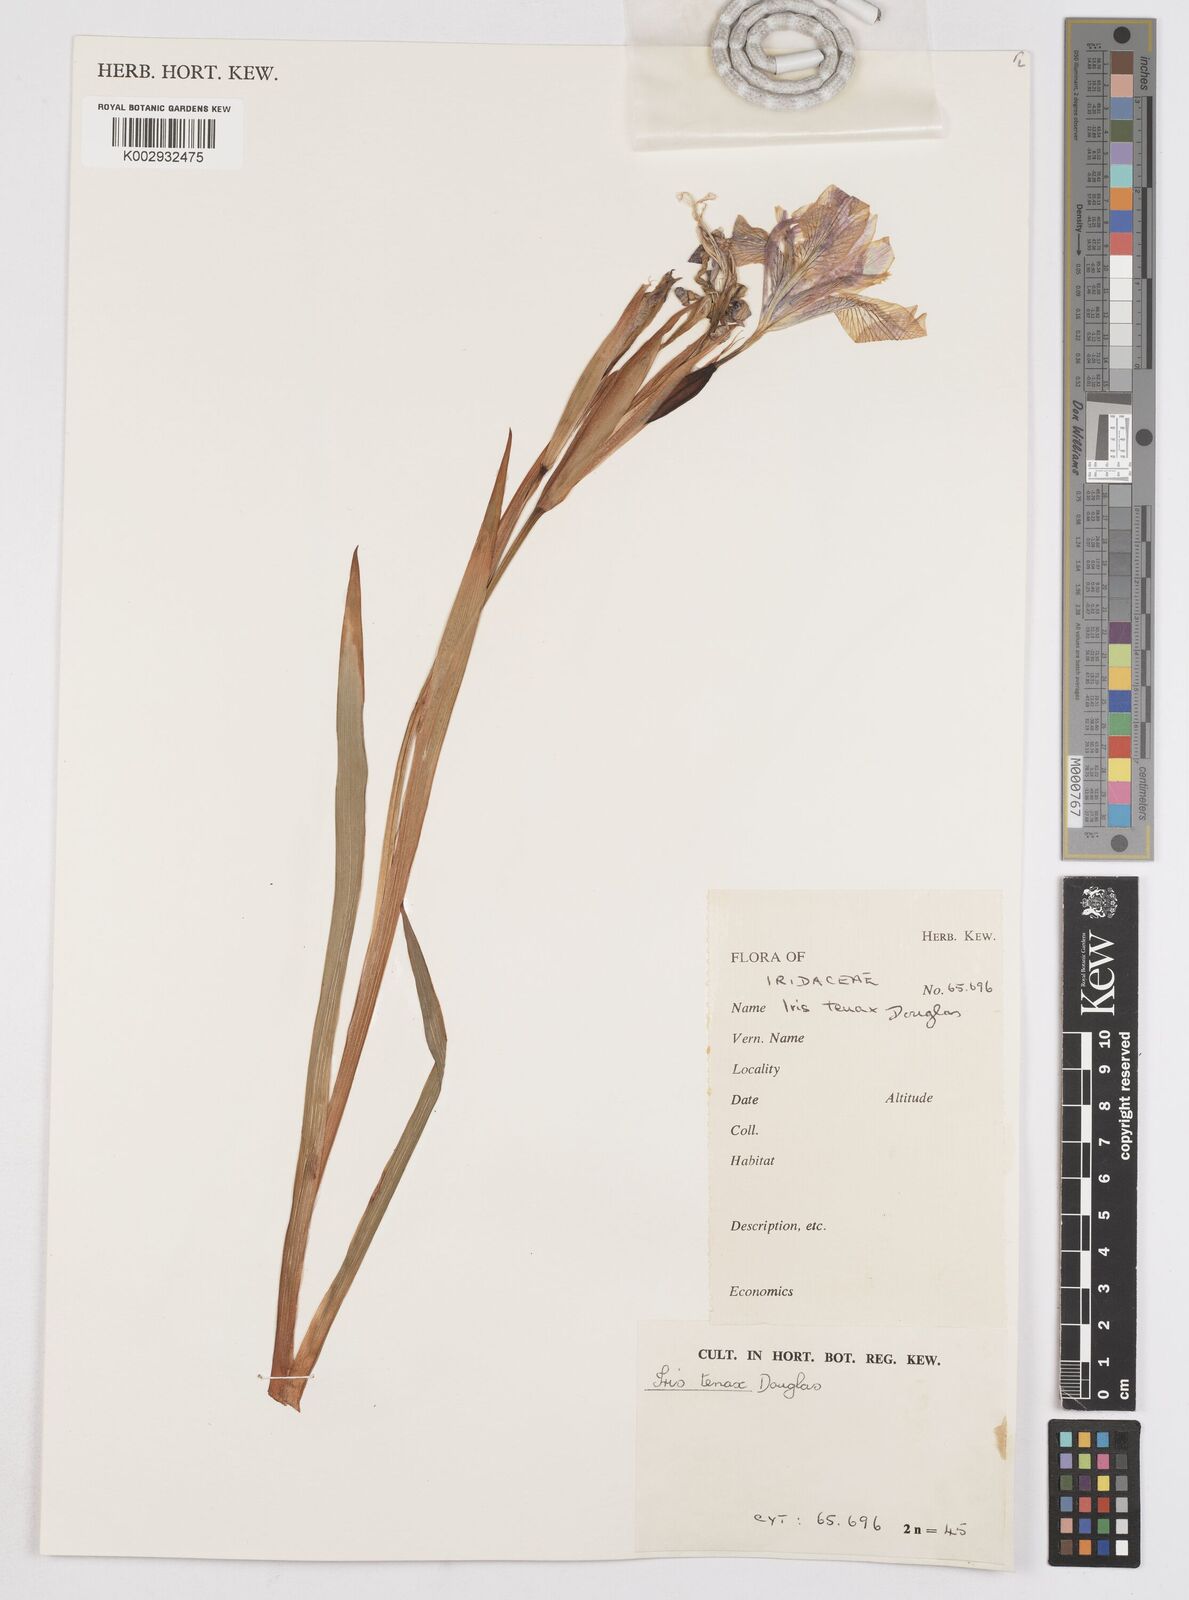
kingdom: Plantae
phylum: Tracheophyta
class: Liliopsida
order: Asparagales
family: Iridaceae
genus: Iris
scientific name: Iris tenax
